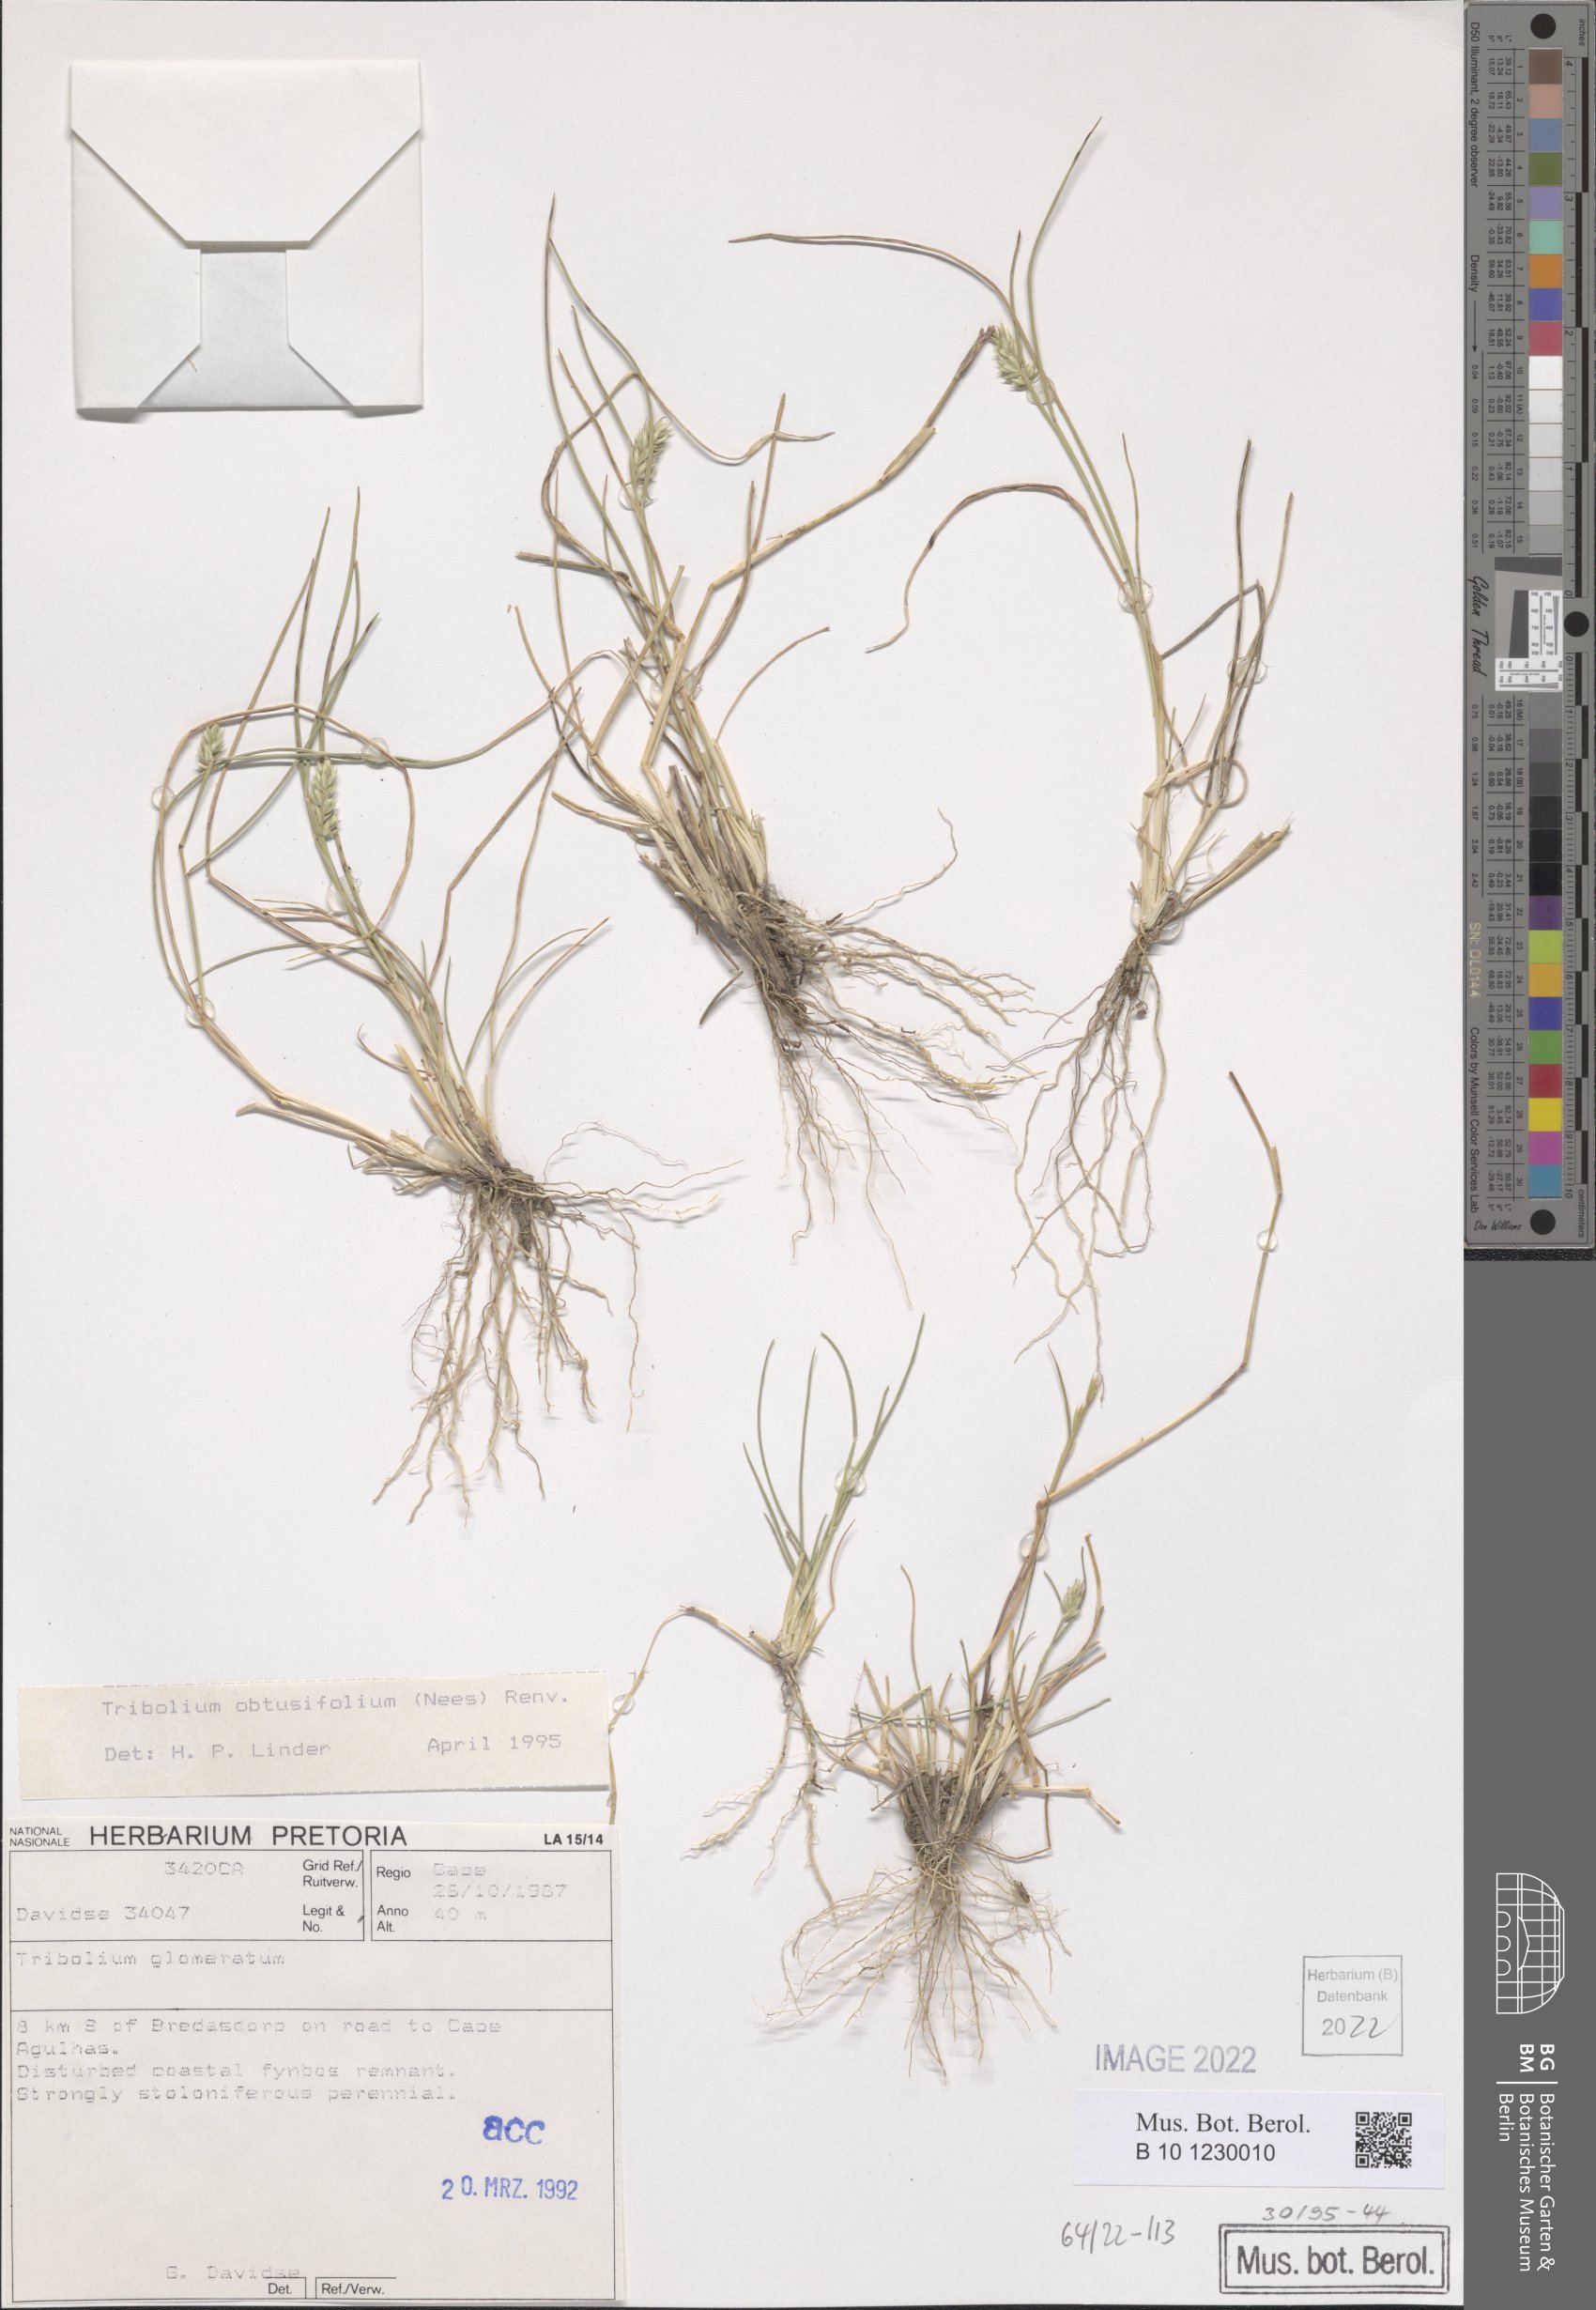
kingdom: Plantae
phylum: Tracheophyta
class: Liliopsida
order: Poales
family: Poaceae
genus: Tribolium
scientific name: Tribolium obtusifolium
